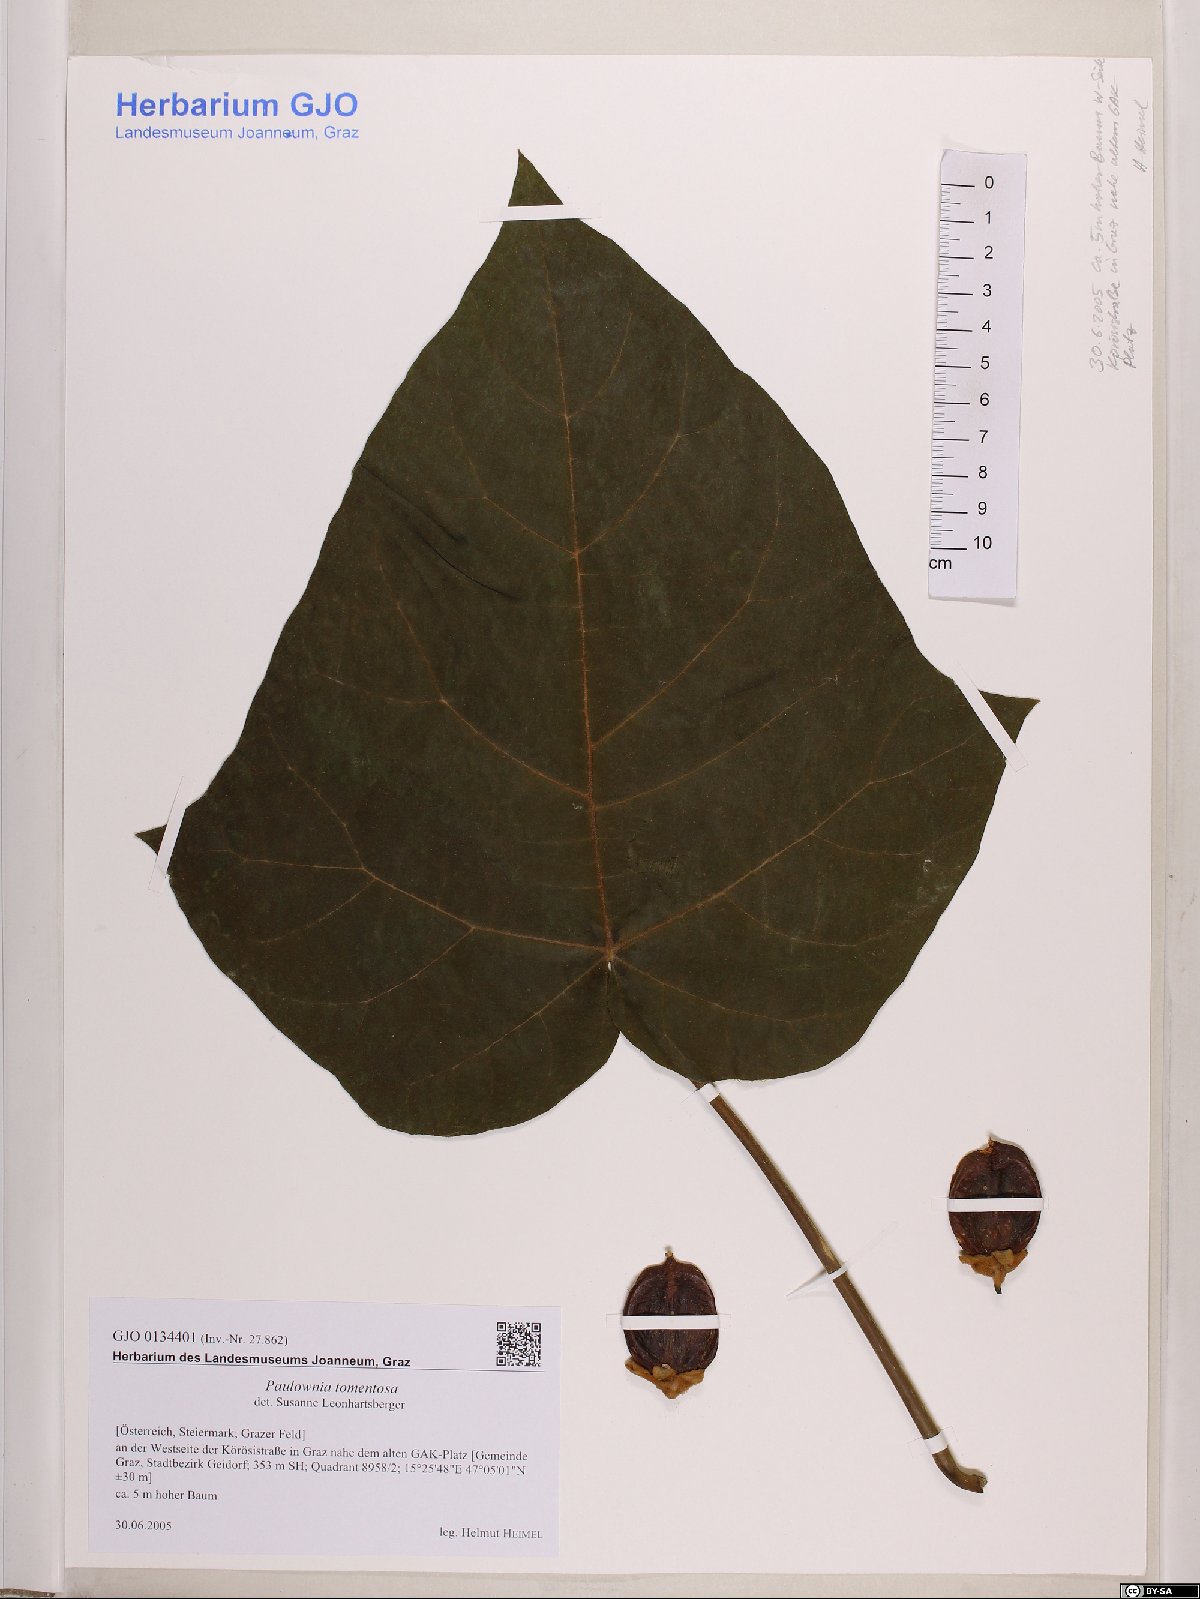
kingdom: Plantae
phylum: Tracheophyta
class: Magnoliopsida
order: Lamiales
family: Paulowniaceae
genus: Paulownia
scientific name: Paulownia tomentosa
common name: Foxglove-tree
